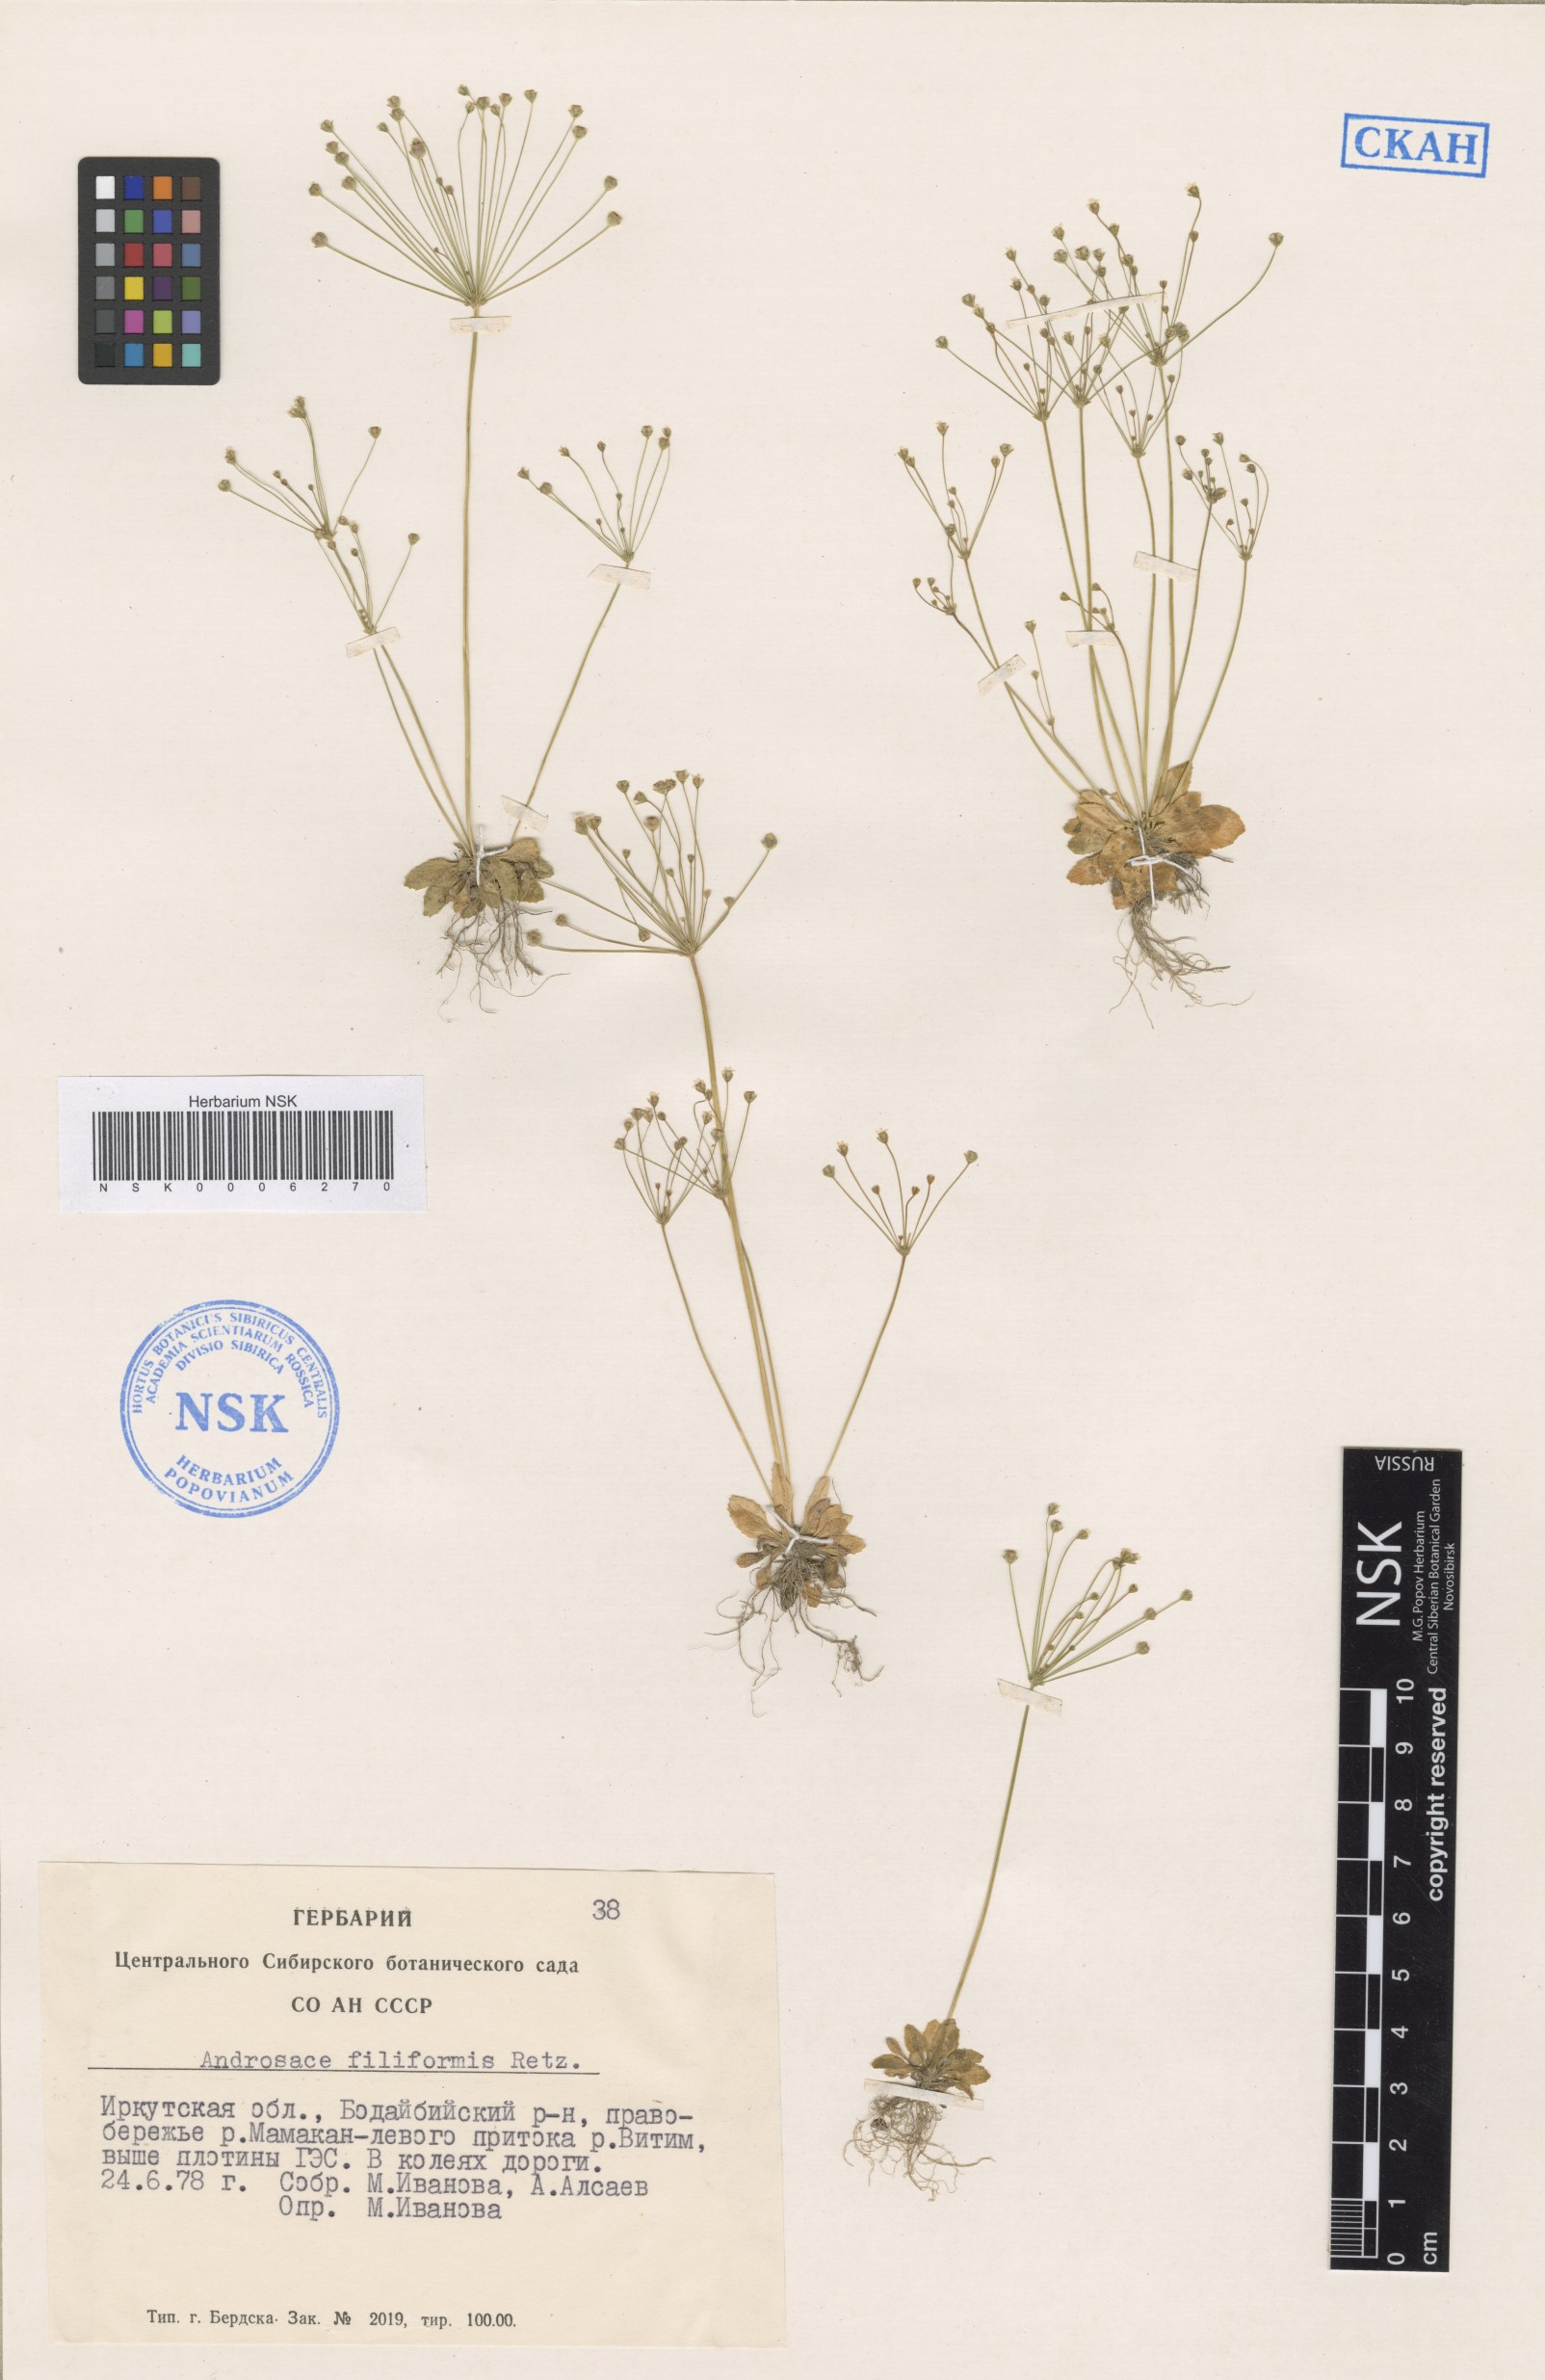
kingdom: Plantae
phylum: Tracheophyta
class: Magnoliopsida
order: Ericales
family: Primulaceae
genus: Androsace
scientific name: Androsace filiformis
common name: Filiform rock jasmine
